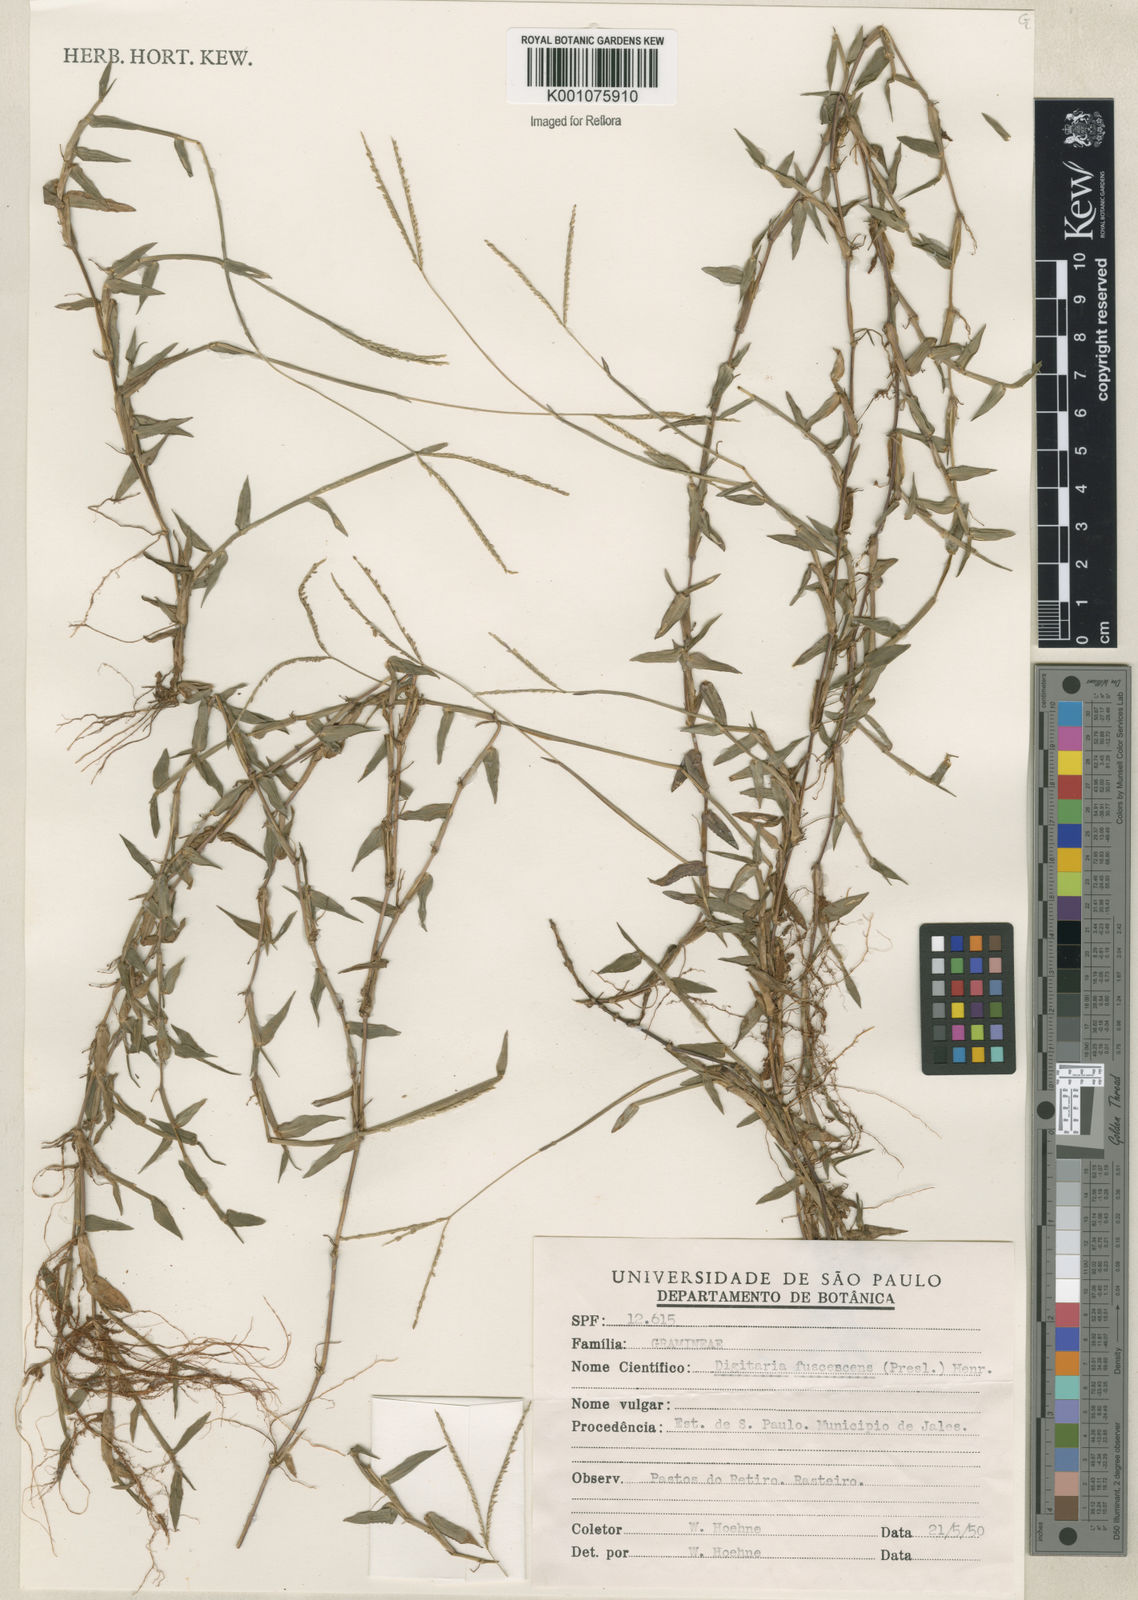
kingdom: Plantae
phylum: Tracheophyta
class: Liliopsida
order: Poales
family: Poaceae
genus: Digitaria
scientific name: Digitaria fuscescens
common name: Yellow crabgrass
